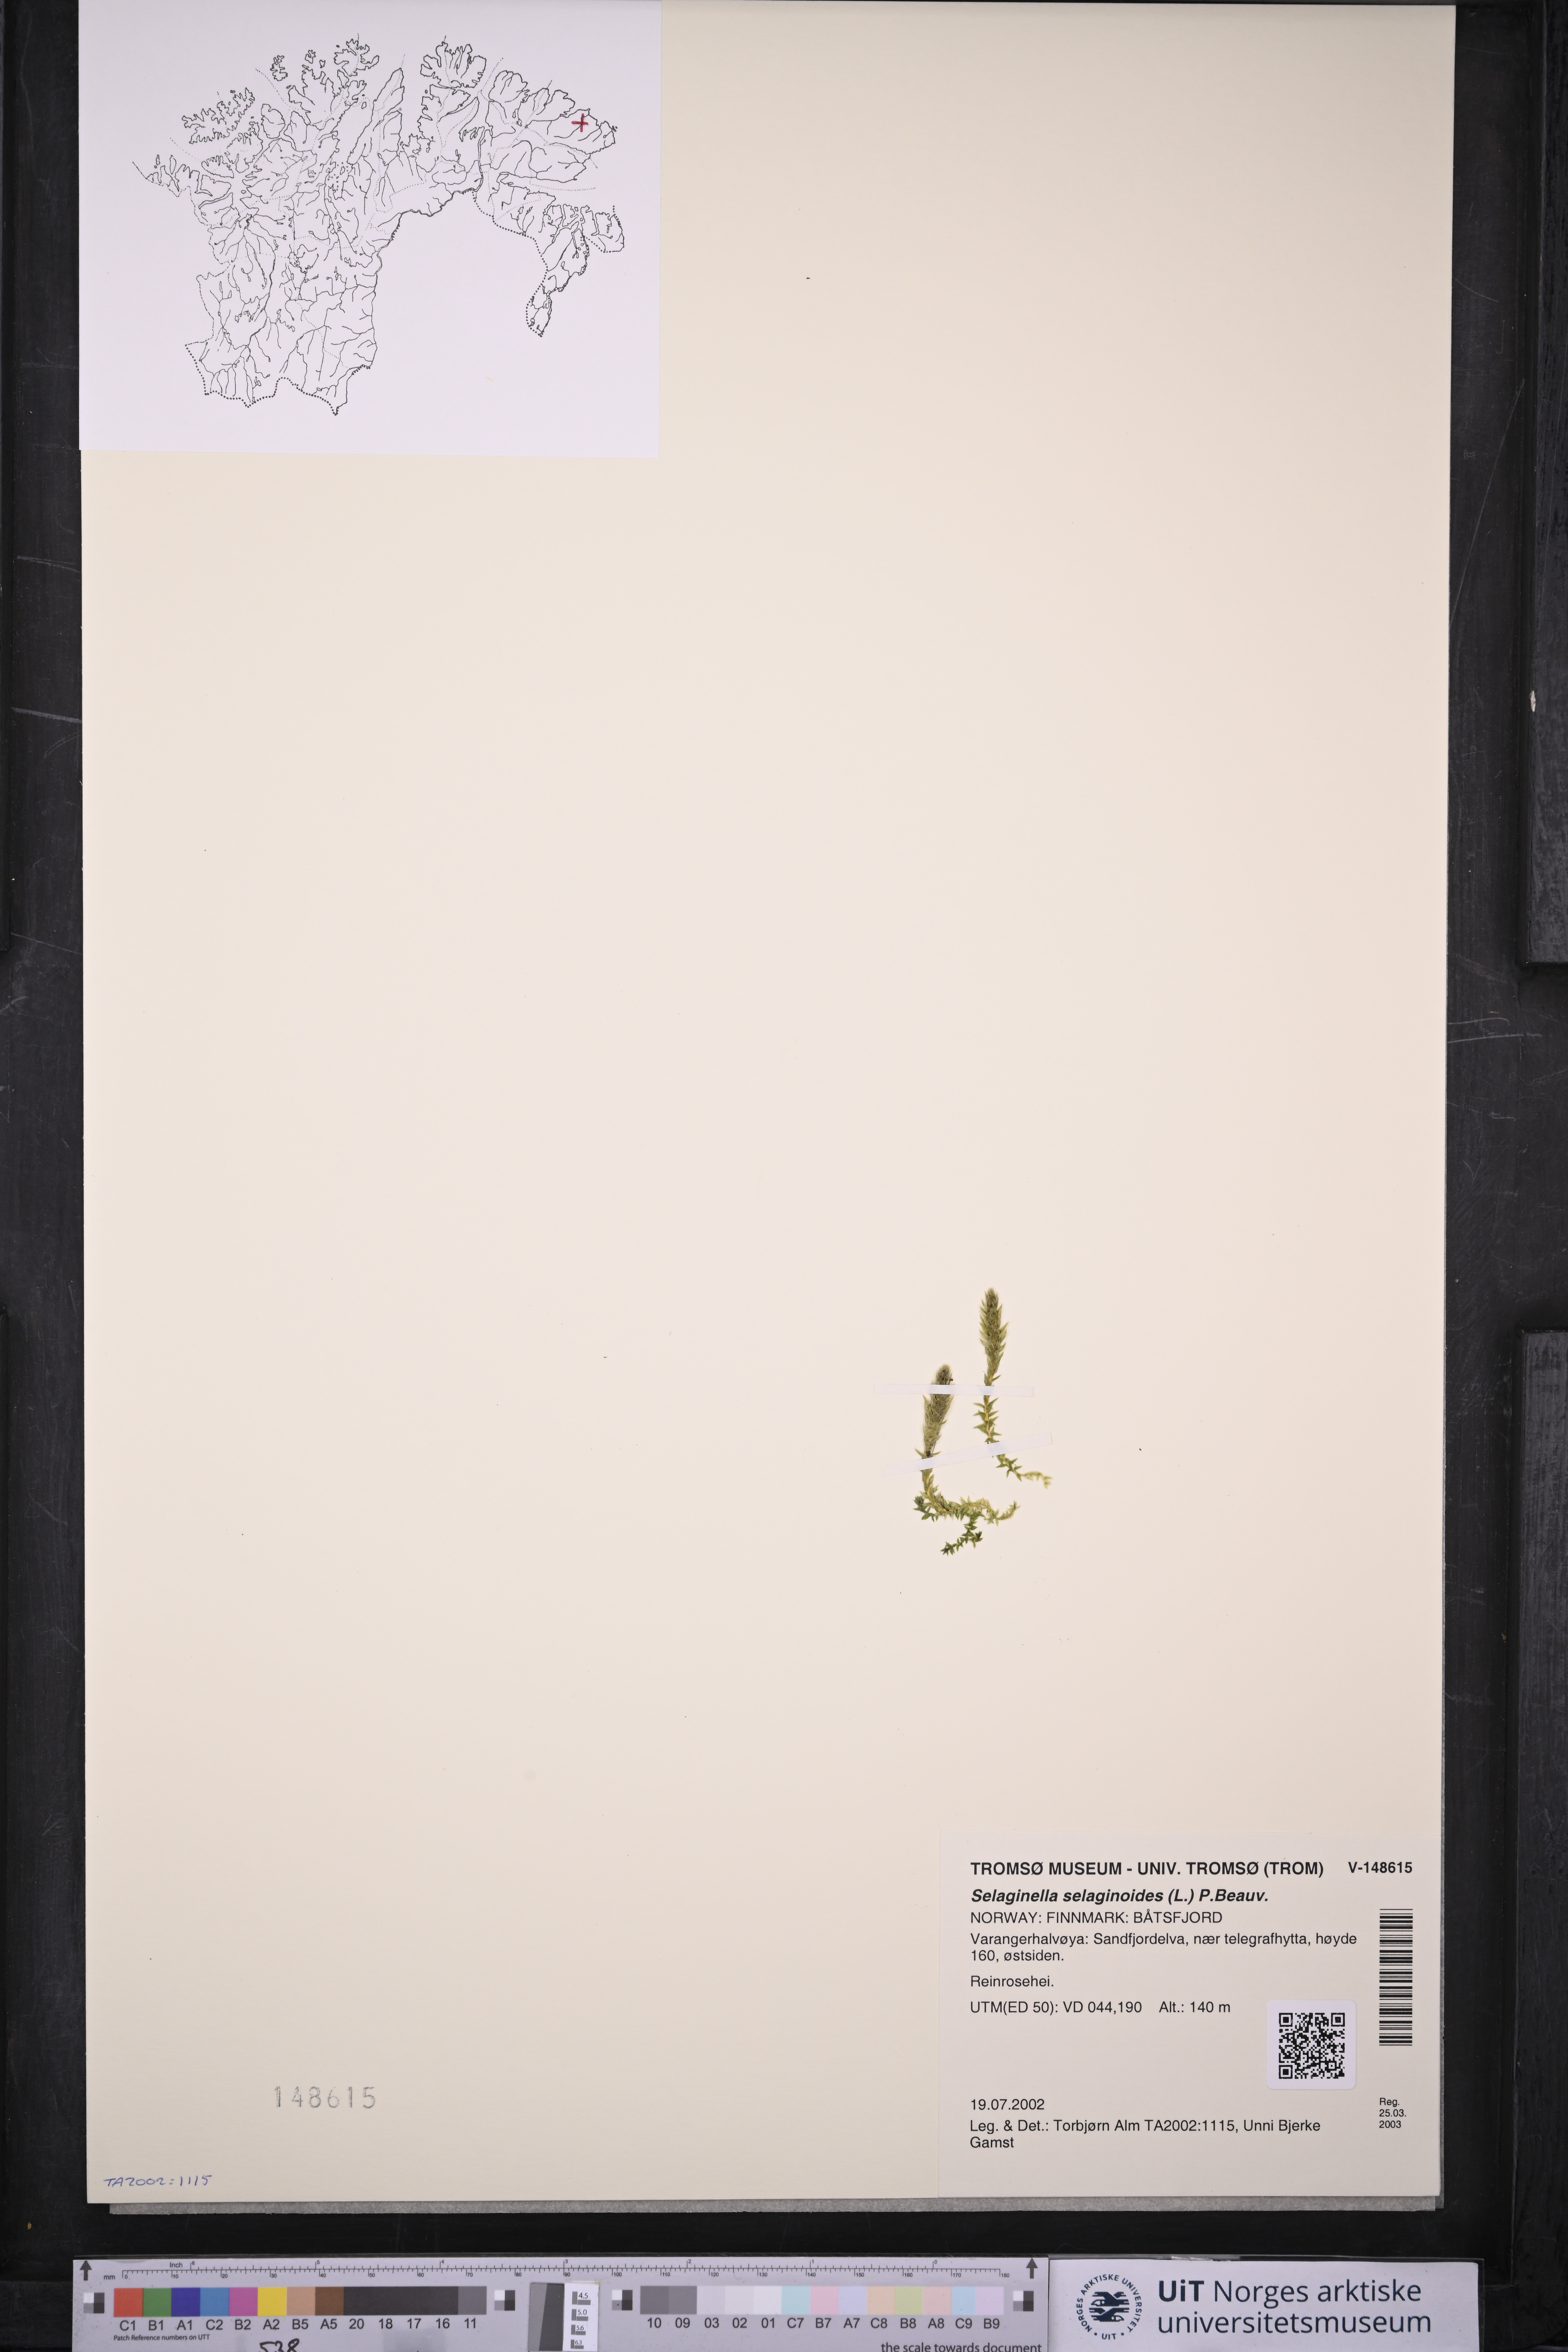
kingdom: Plantae
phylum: Tracheophyta
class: Lycopodiopsida
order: Selaginellales
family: Selaginellaceae
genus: Selaginella
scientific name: Selaginella selaginoides
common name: Prickly mountain-moss
